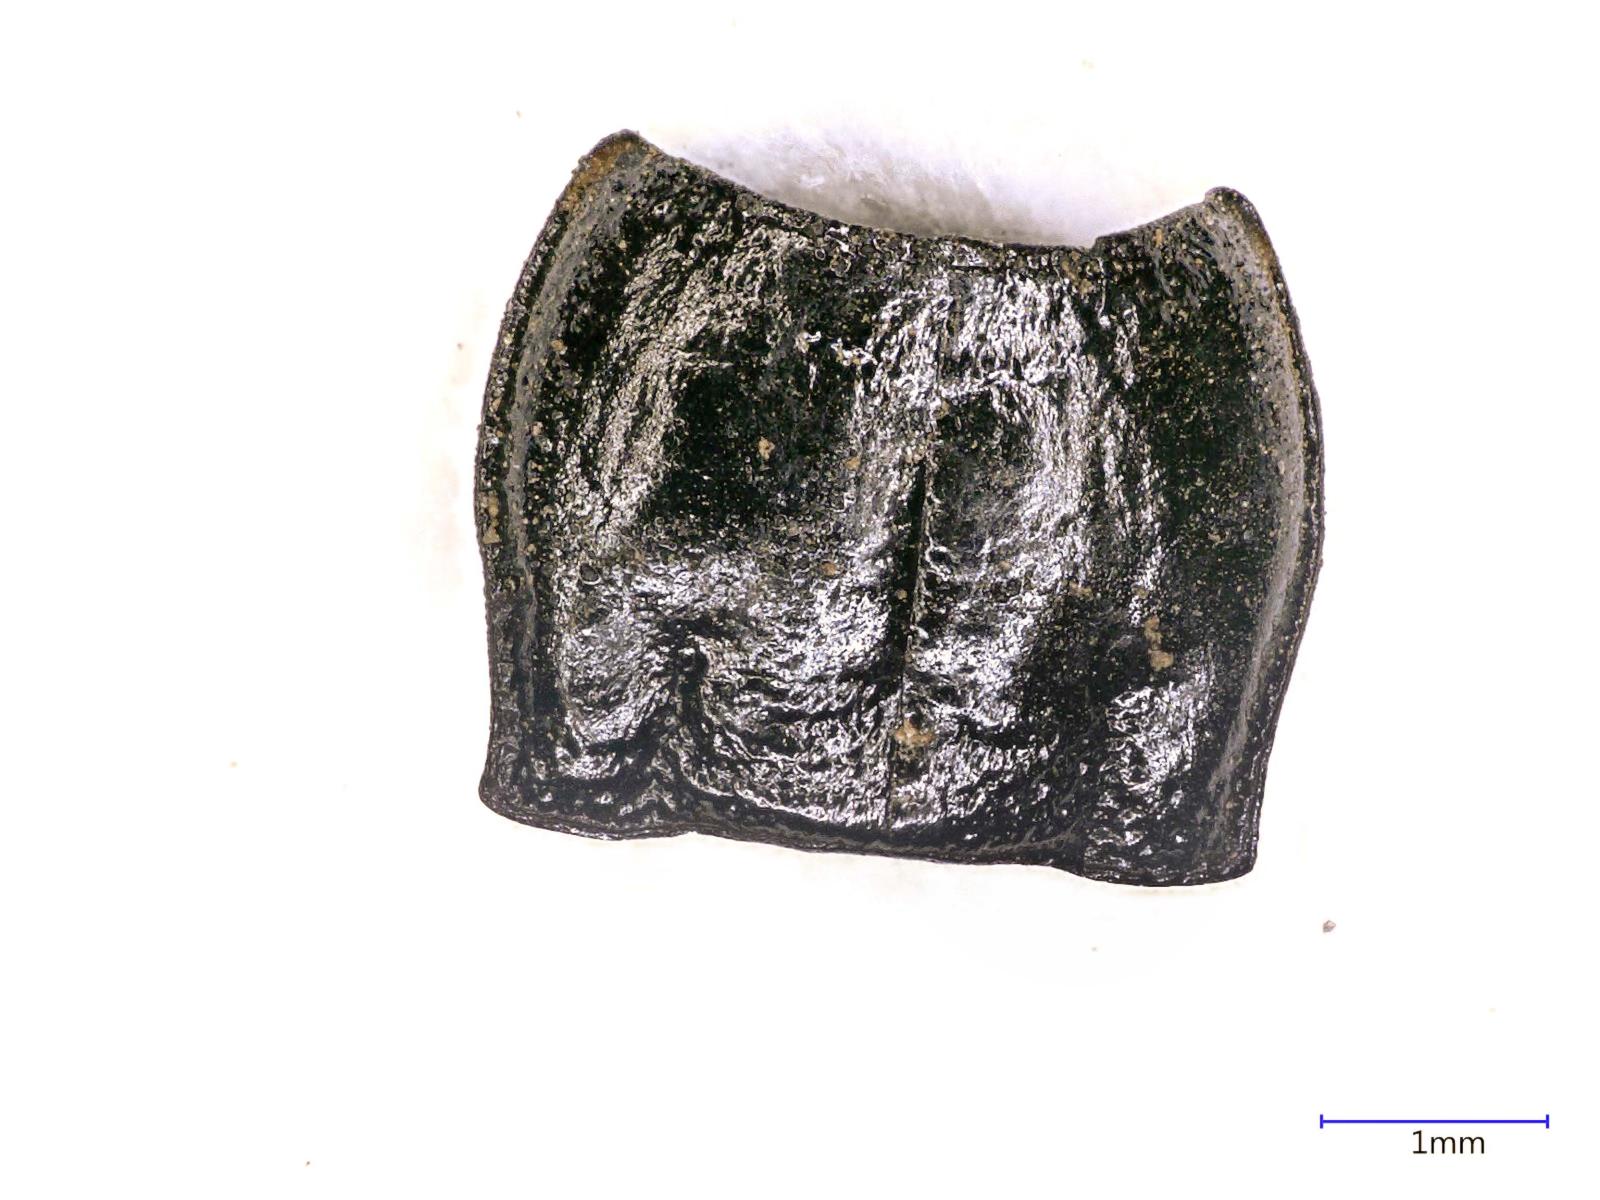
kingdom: Animalia
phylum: Arthropoda
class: Insecta
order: Coleoptera
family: Carabidae
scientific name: Carabidae
